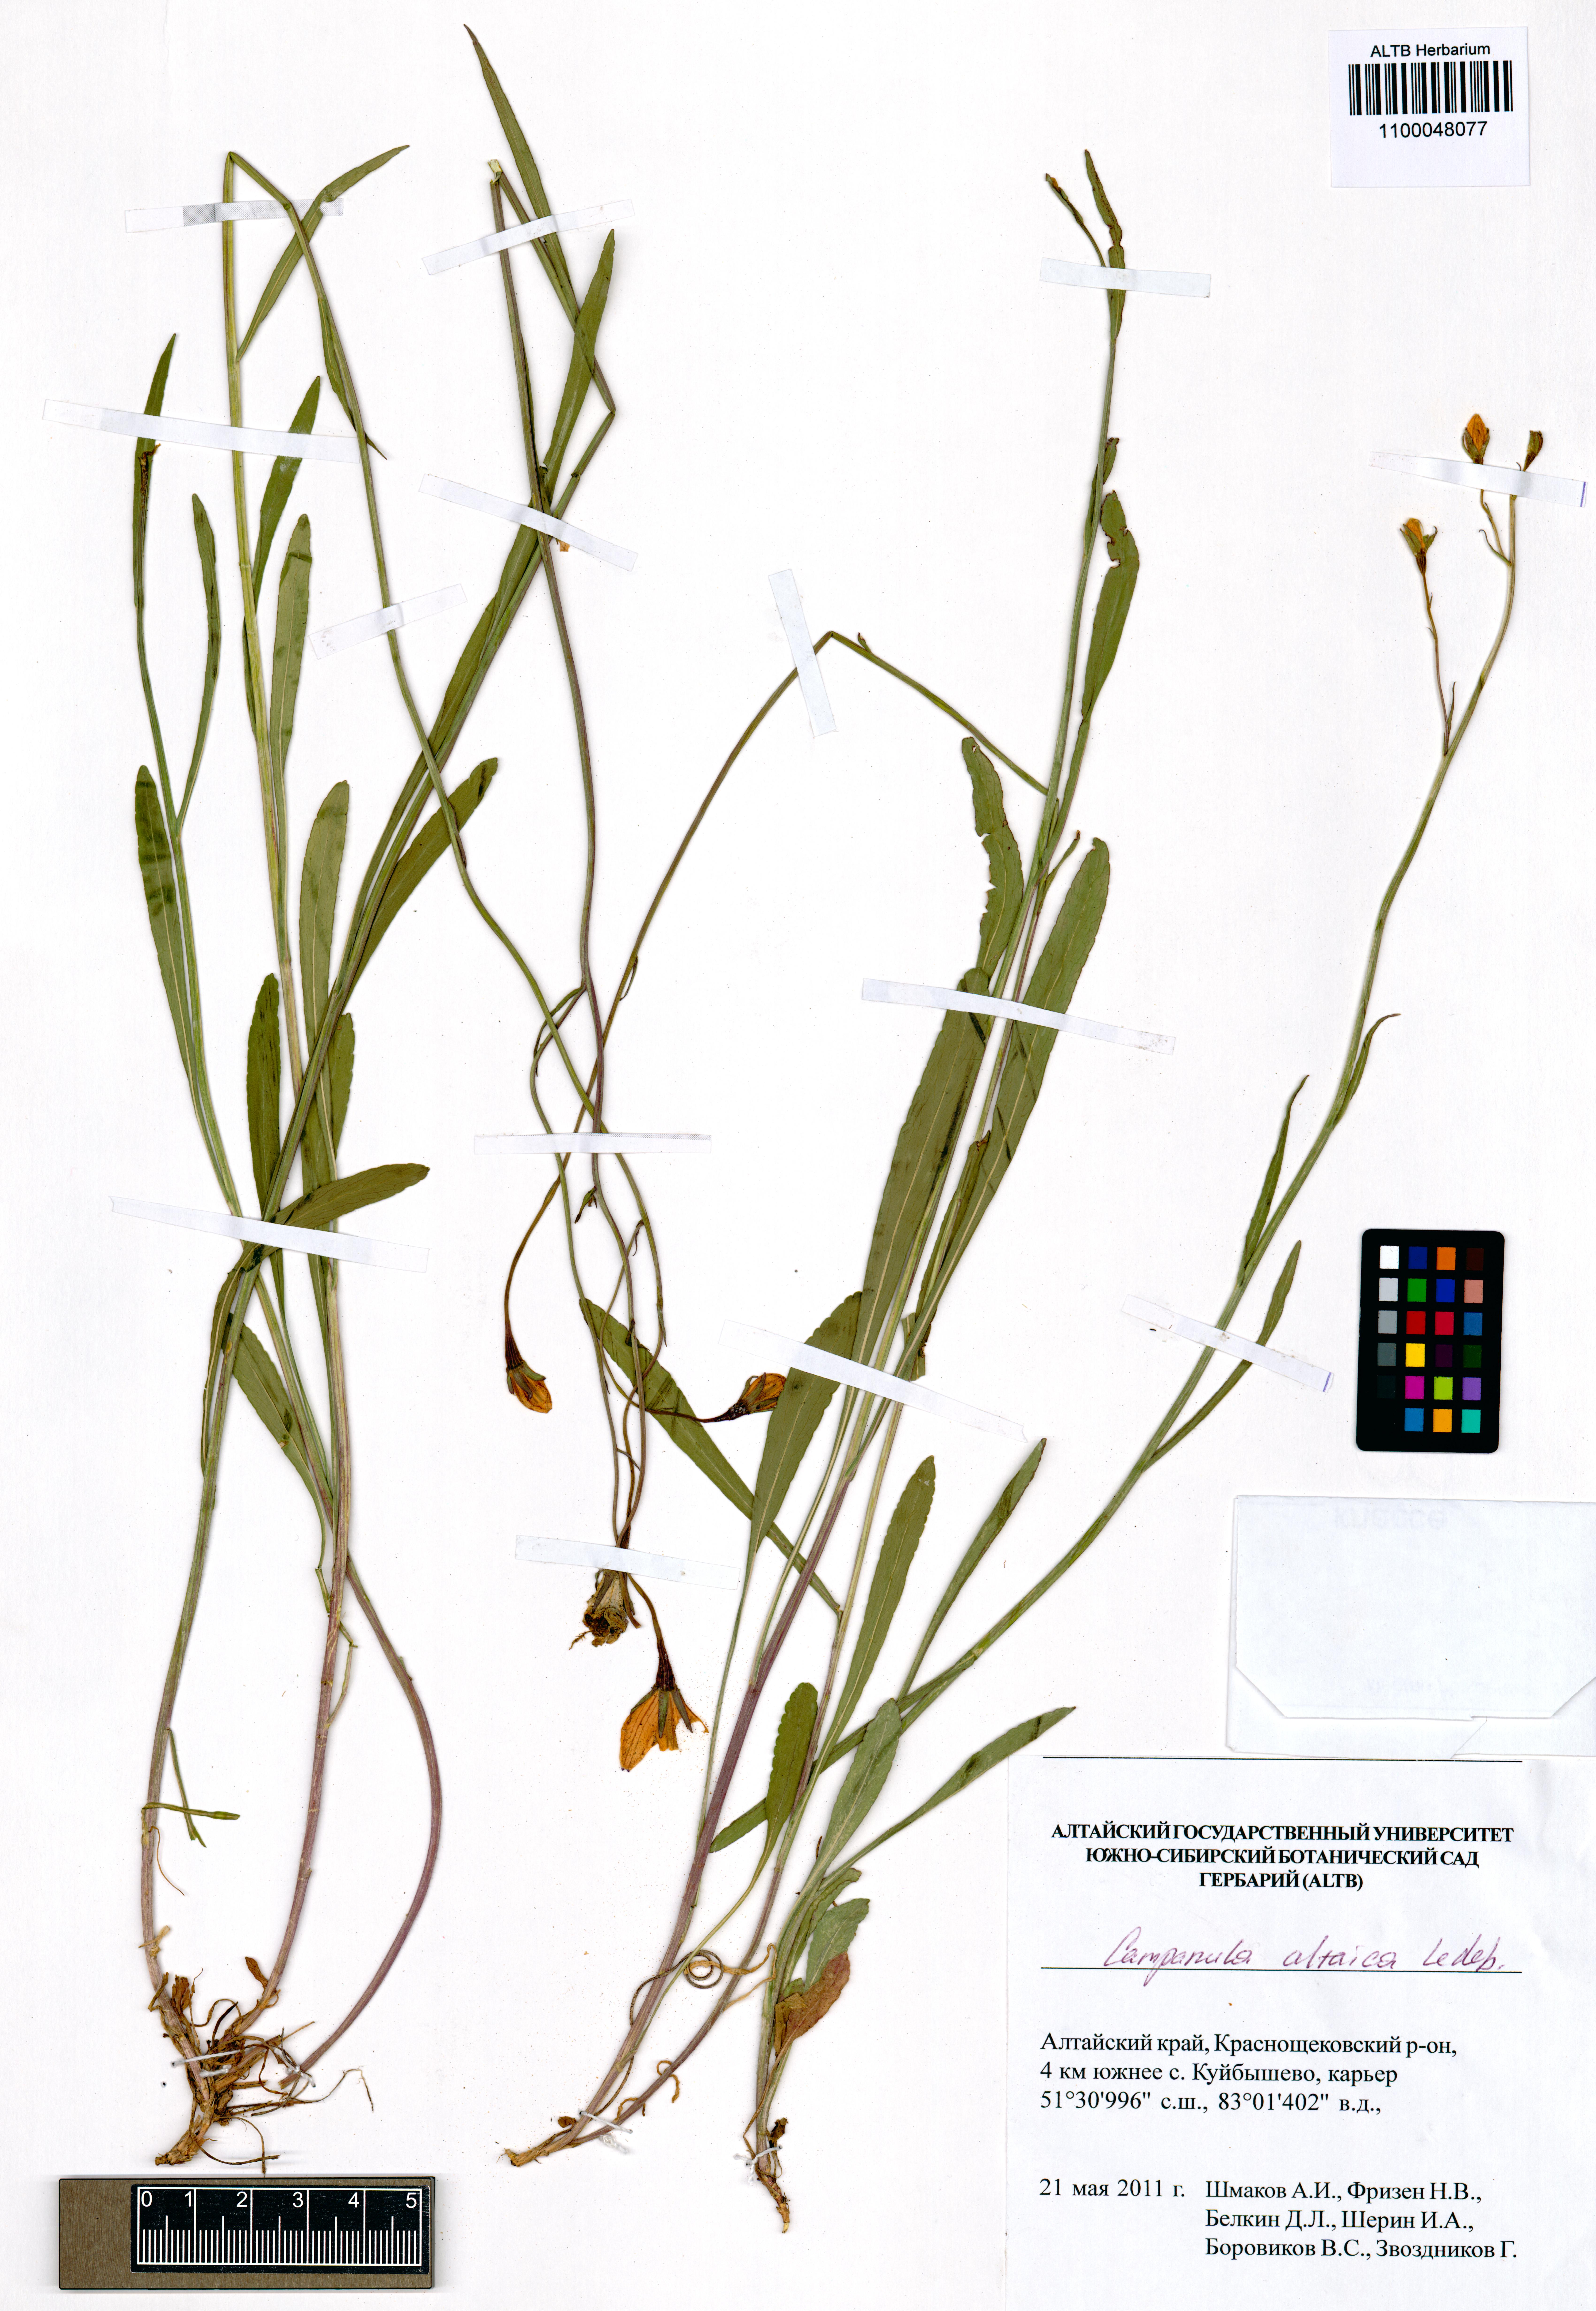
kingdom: Plantae
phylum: Tracheophyta
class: Magnoliopsida
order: Asterales
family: Campanulaceae
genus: Campanula
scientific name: Campanula stevenii
